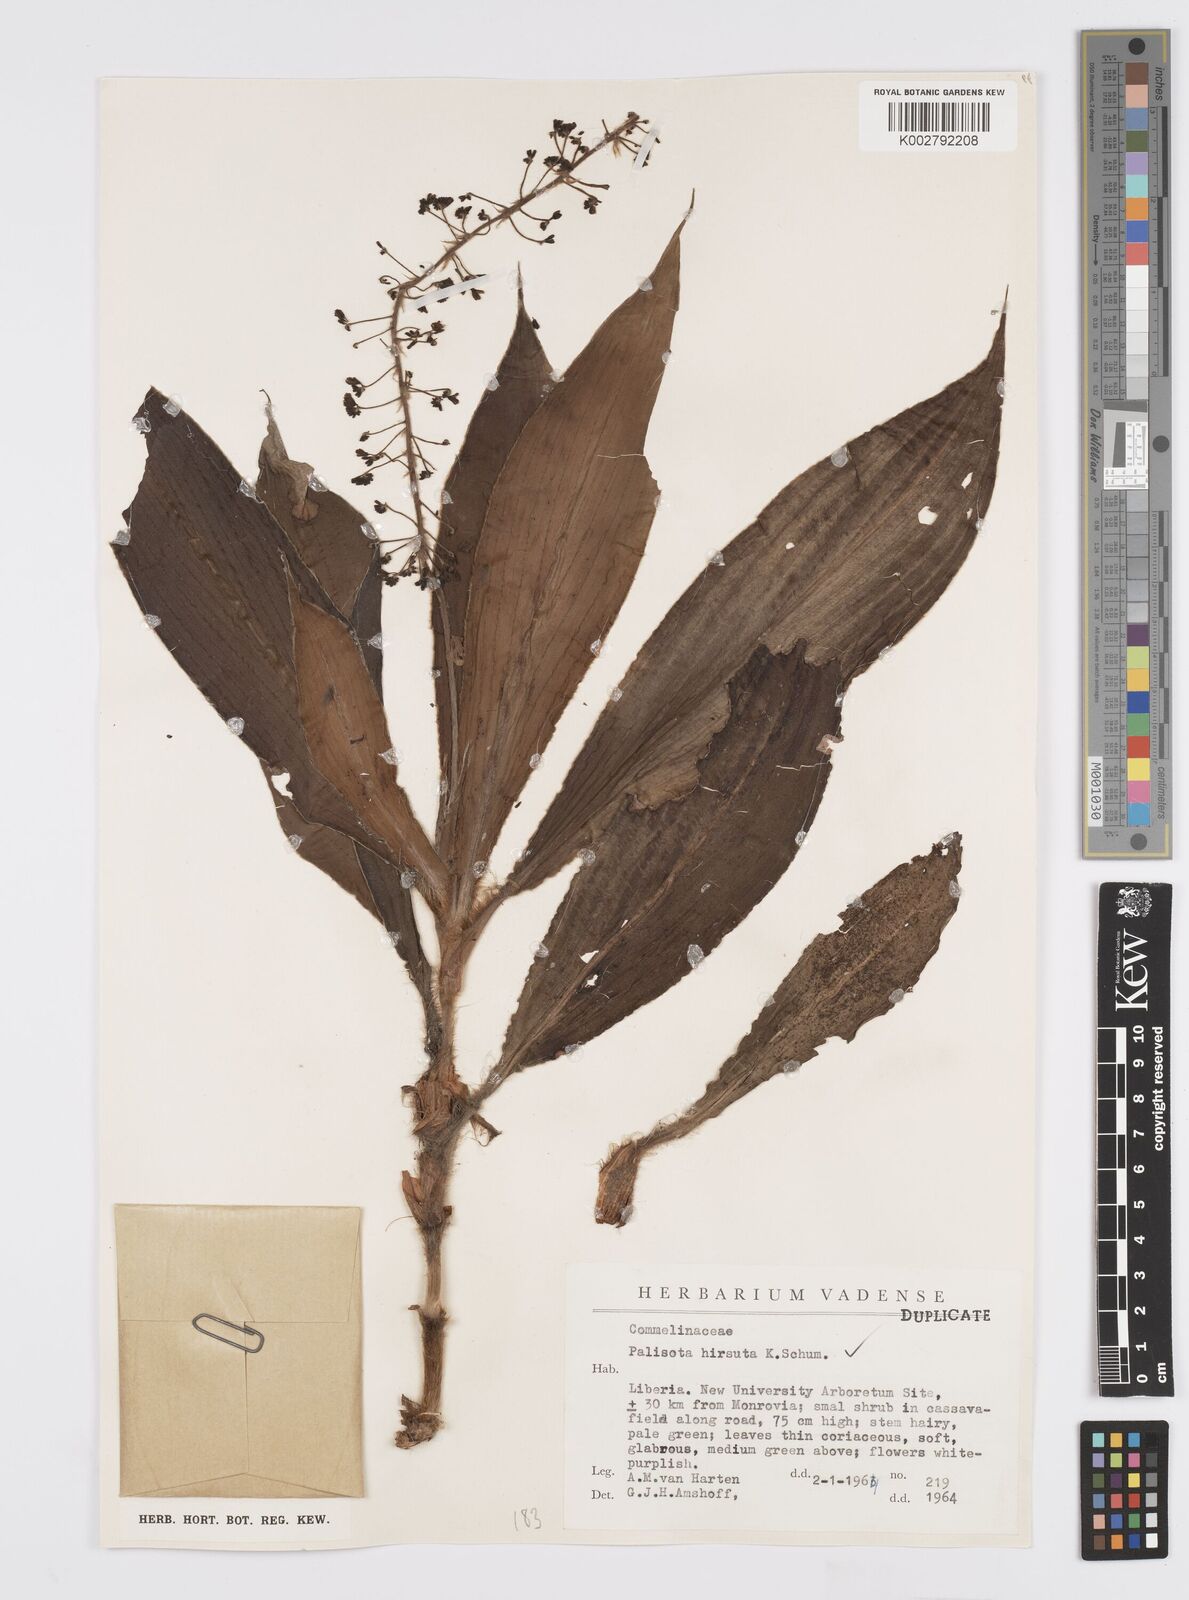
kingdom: Plantae
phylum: Tracheophyta
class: Liliopsida
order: Commelinales
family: Commelinaceae
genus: Palisota
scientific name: Palisota hirsuta
